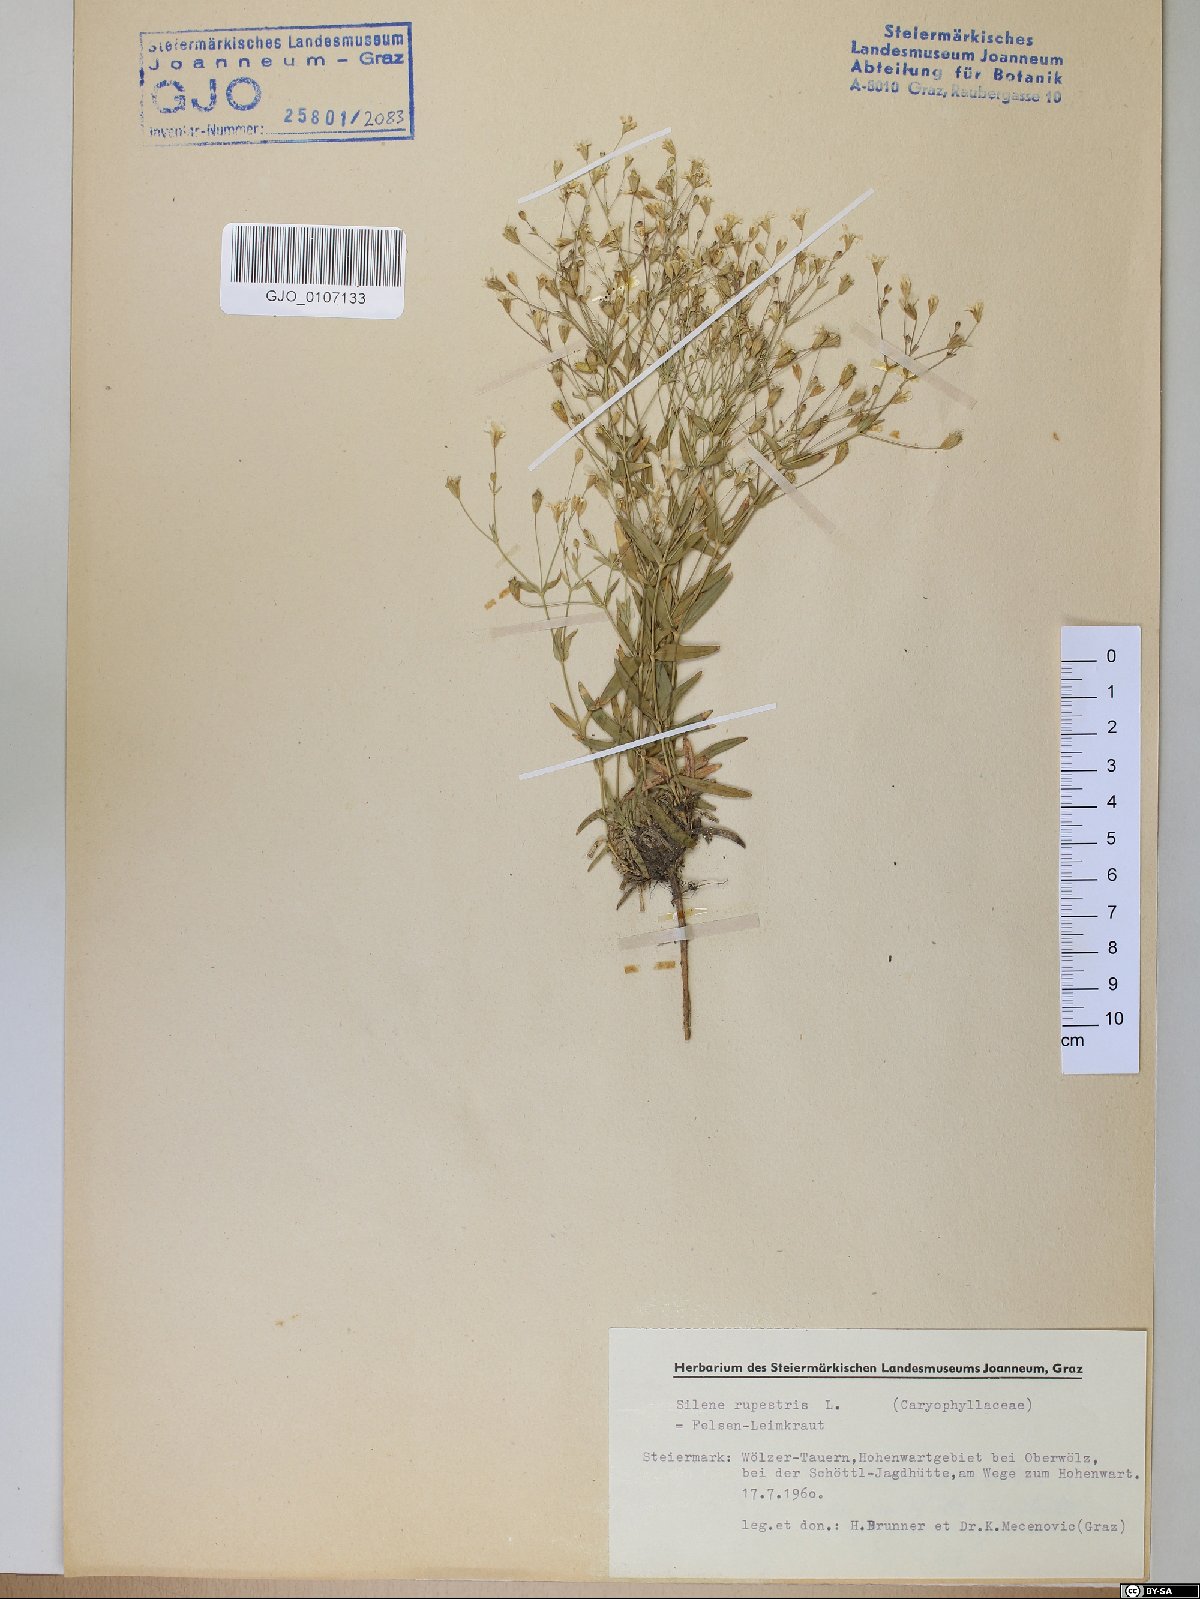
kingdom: Plantae
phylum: Tracheophyta
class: Magnoliopsida
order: Caryophyllales
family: Caryophyllaceae
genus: Atocion
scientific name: Atocion rupestre
